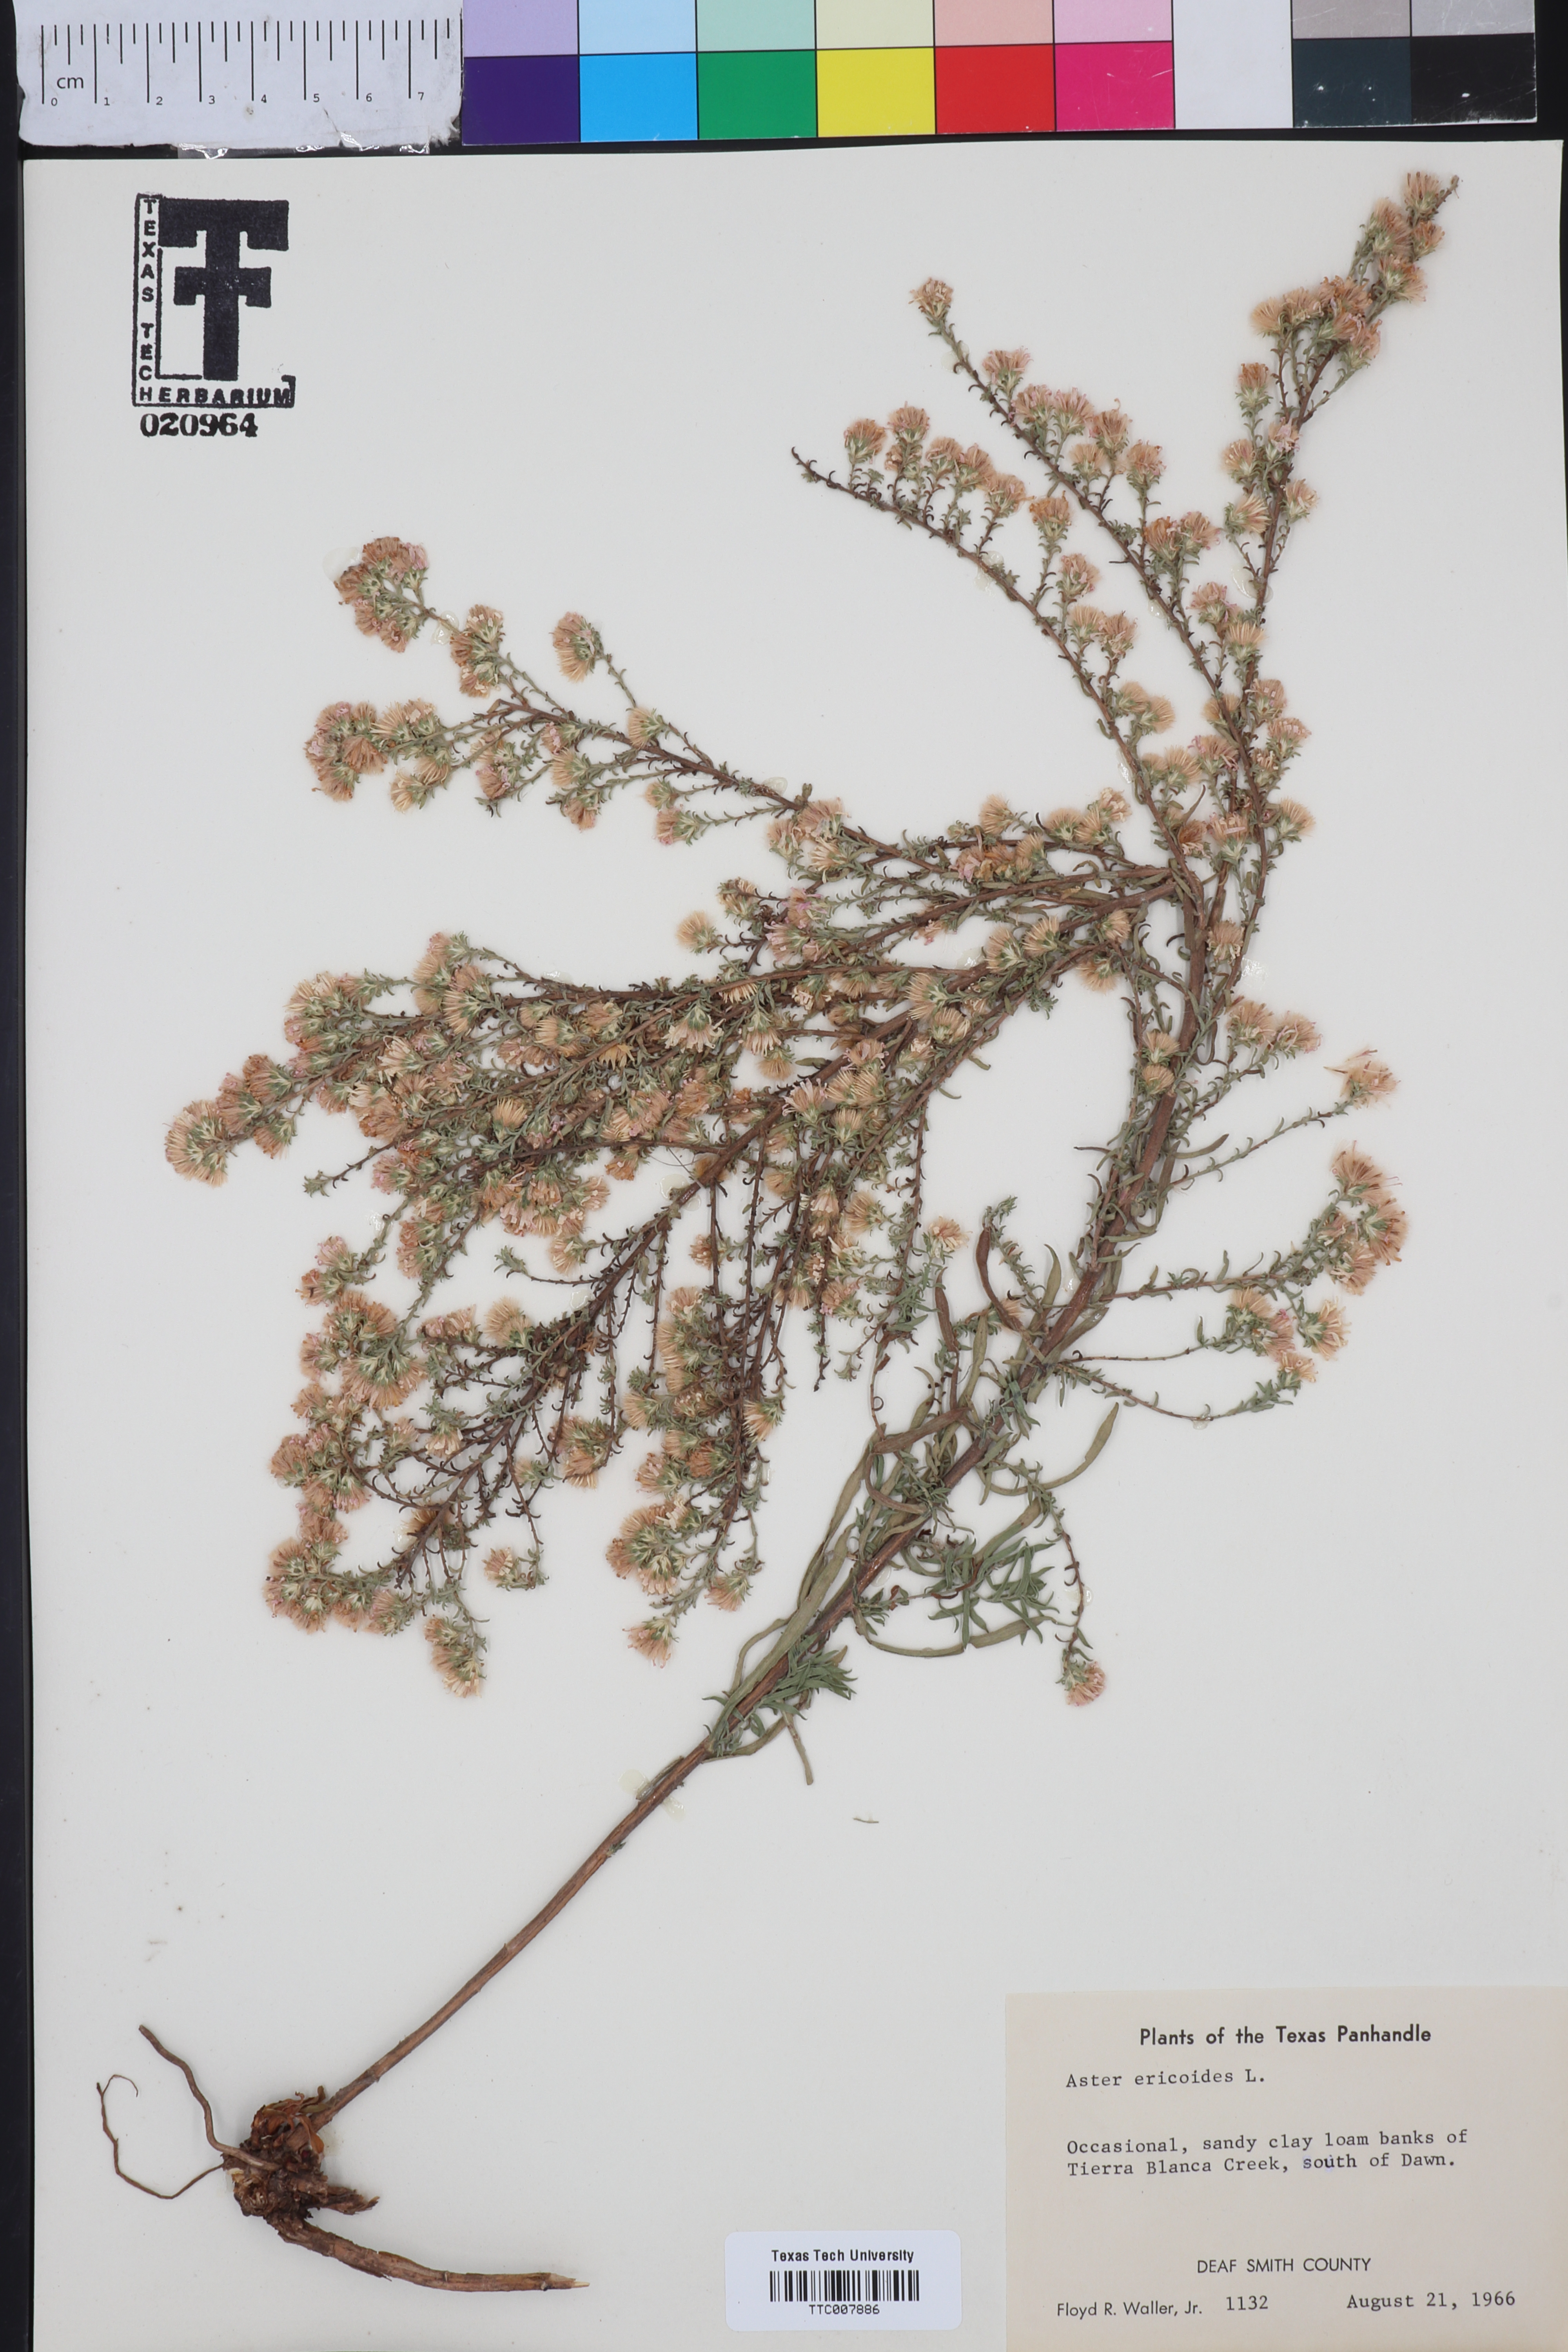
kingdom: Plantae
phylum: Tracheophyta
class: Magnoliopsida
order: Asterales
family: Asteraceae
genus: Symphyotrichum
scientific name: Symphyotrichum ericoides
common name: Heath aster
